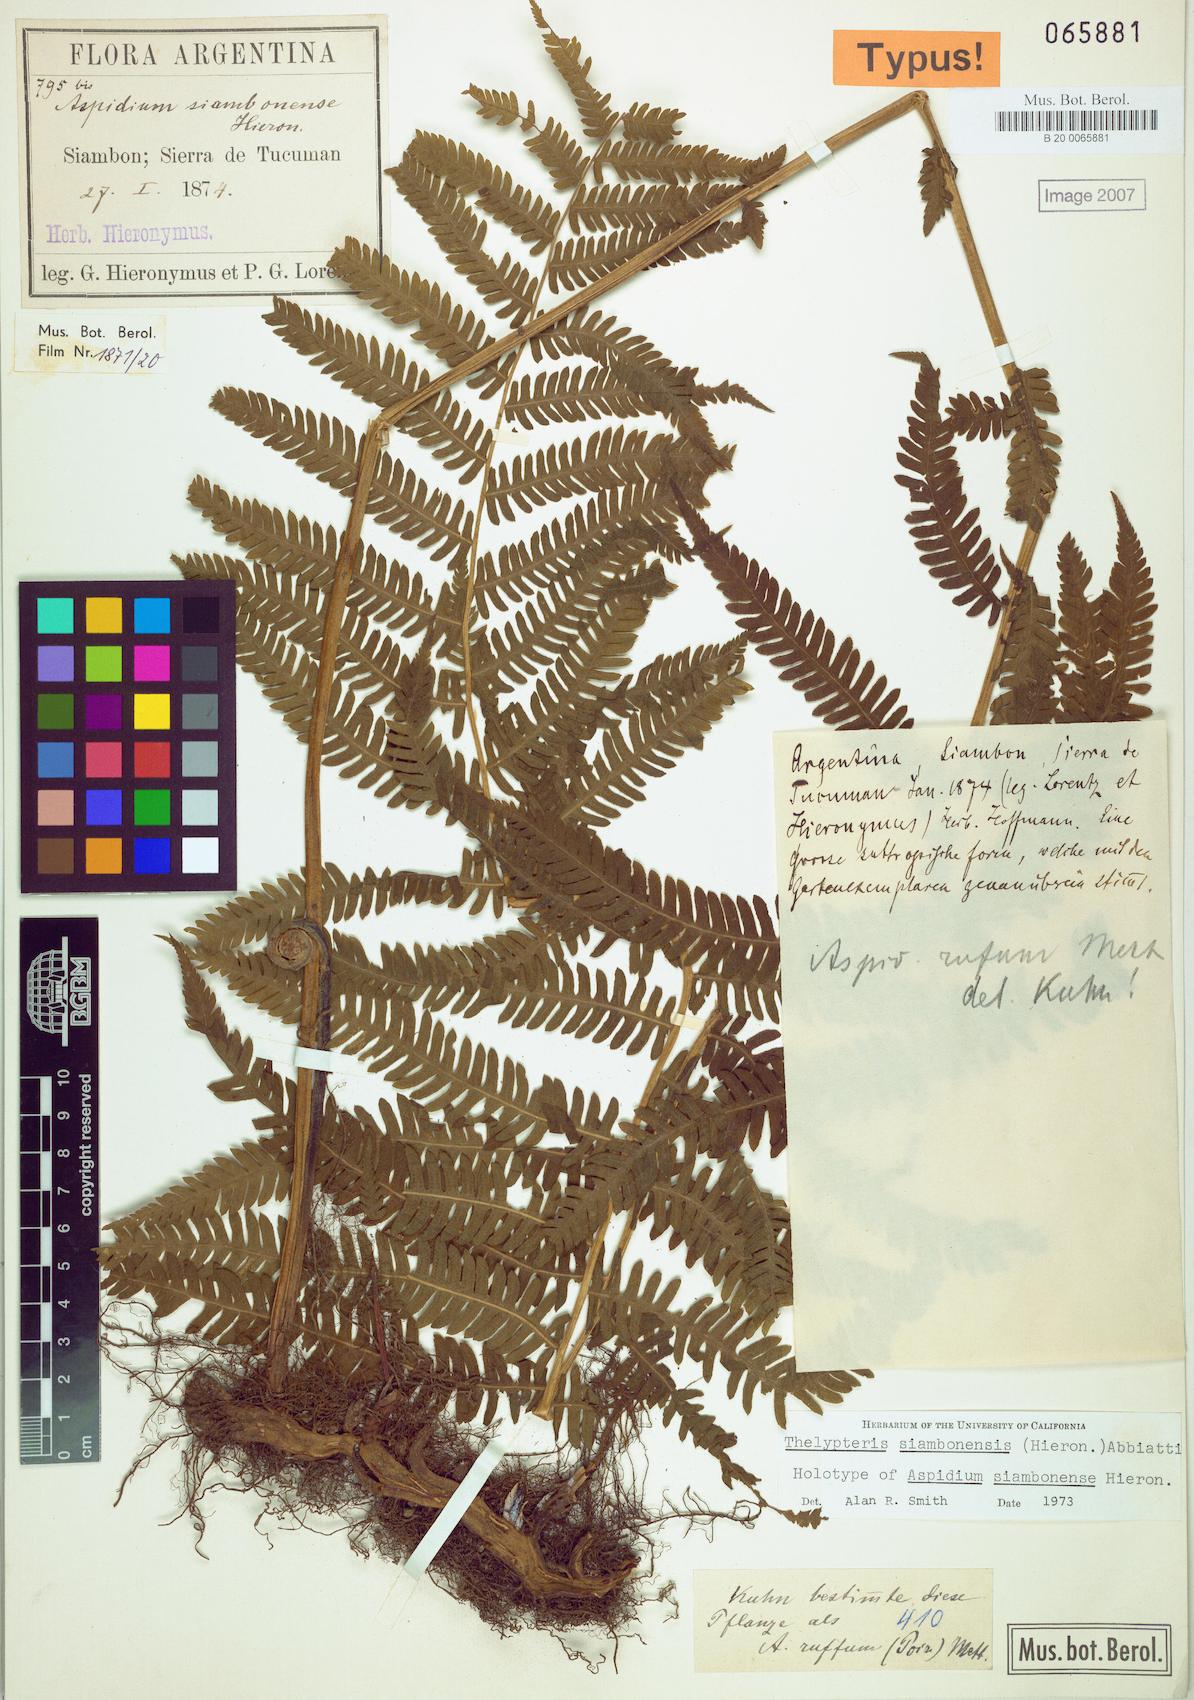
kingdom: Plantae
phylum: Tracheophyta
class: Polypodiopsida
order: Polypodiales
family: Thelypteridaceae
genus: Amauropelta
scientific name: Amauropelta achalensis
